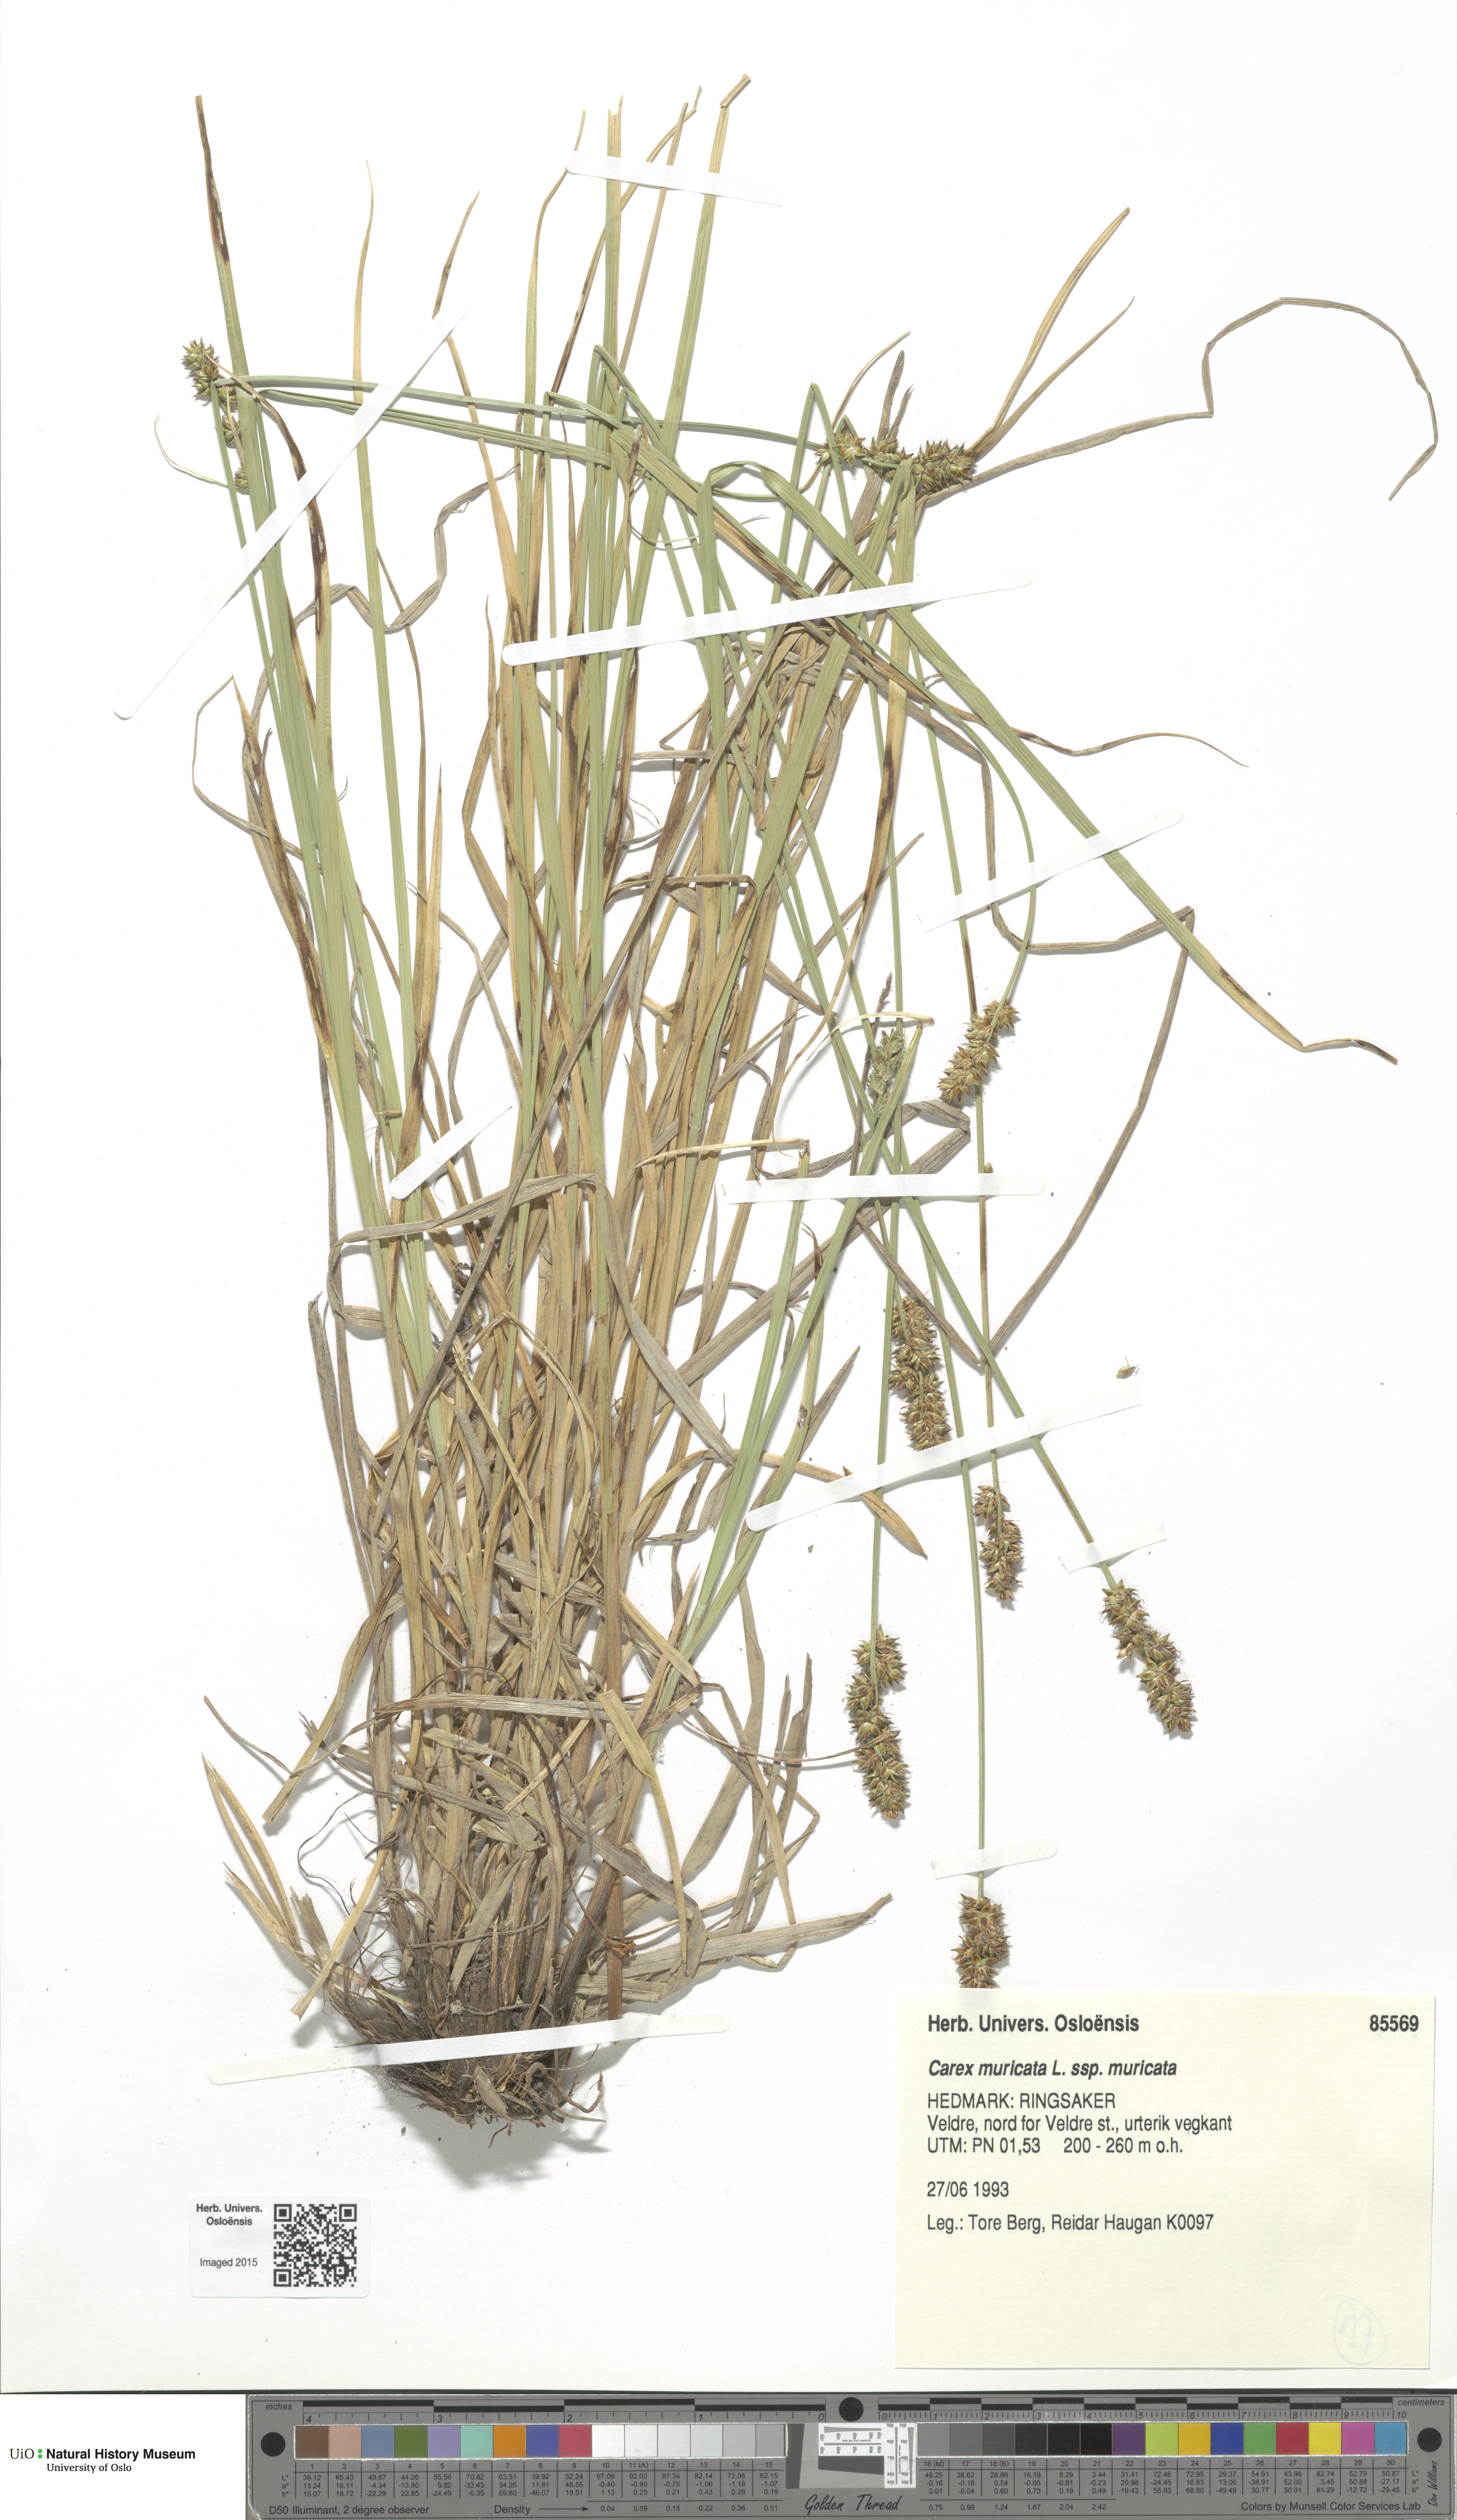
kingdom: Plantae
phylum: Tracheophyta
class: Liliopsida
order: Poales
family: Cyperaceae
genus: Carex
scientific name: Carex muricata
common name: Rough sedge
